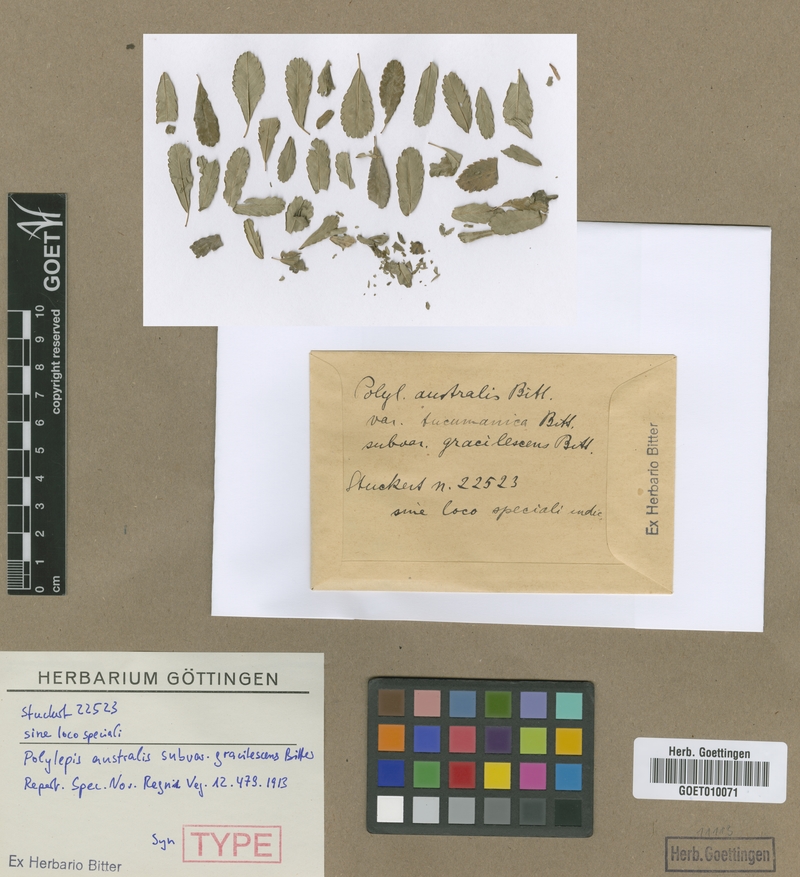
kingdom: Plantae
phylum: Tracheophyta
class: Magnoliopsida
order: Rosales
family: Rosaceae
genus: Polylepis
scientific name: Polylepis australis
